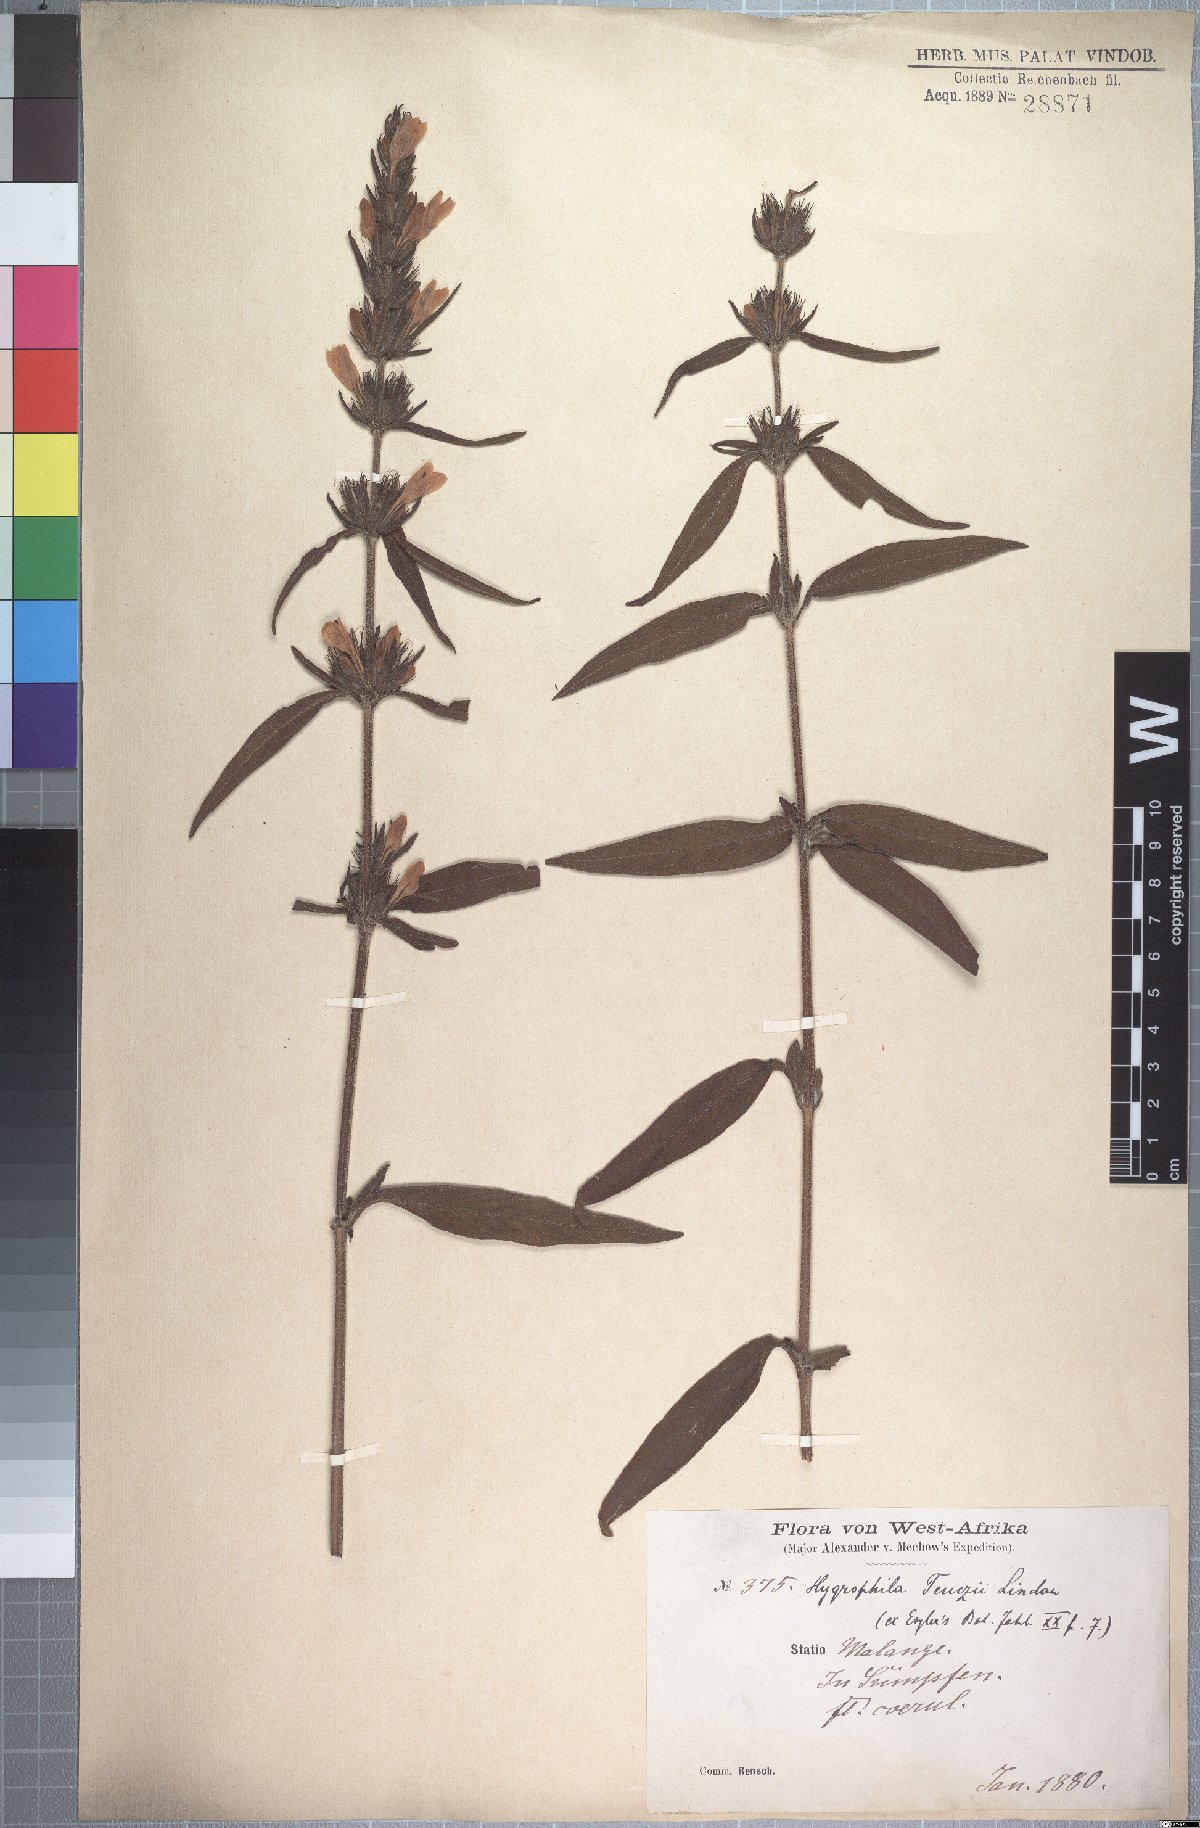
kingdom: Plantae
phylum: Tracheophyta
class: Magnoliopsida
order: Lamiales
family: Acanthaceae
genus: Hygrophila
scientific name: Hygrophila teuczii
